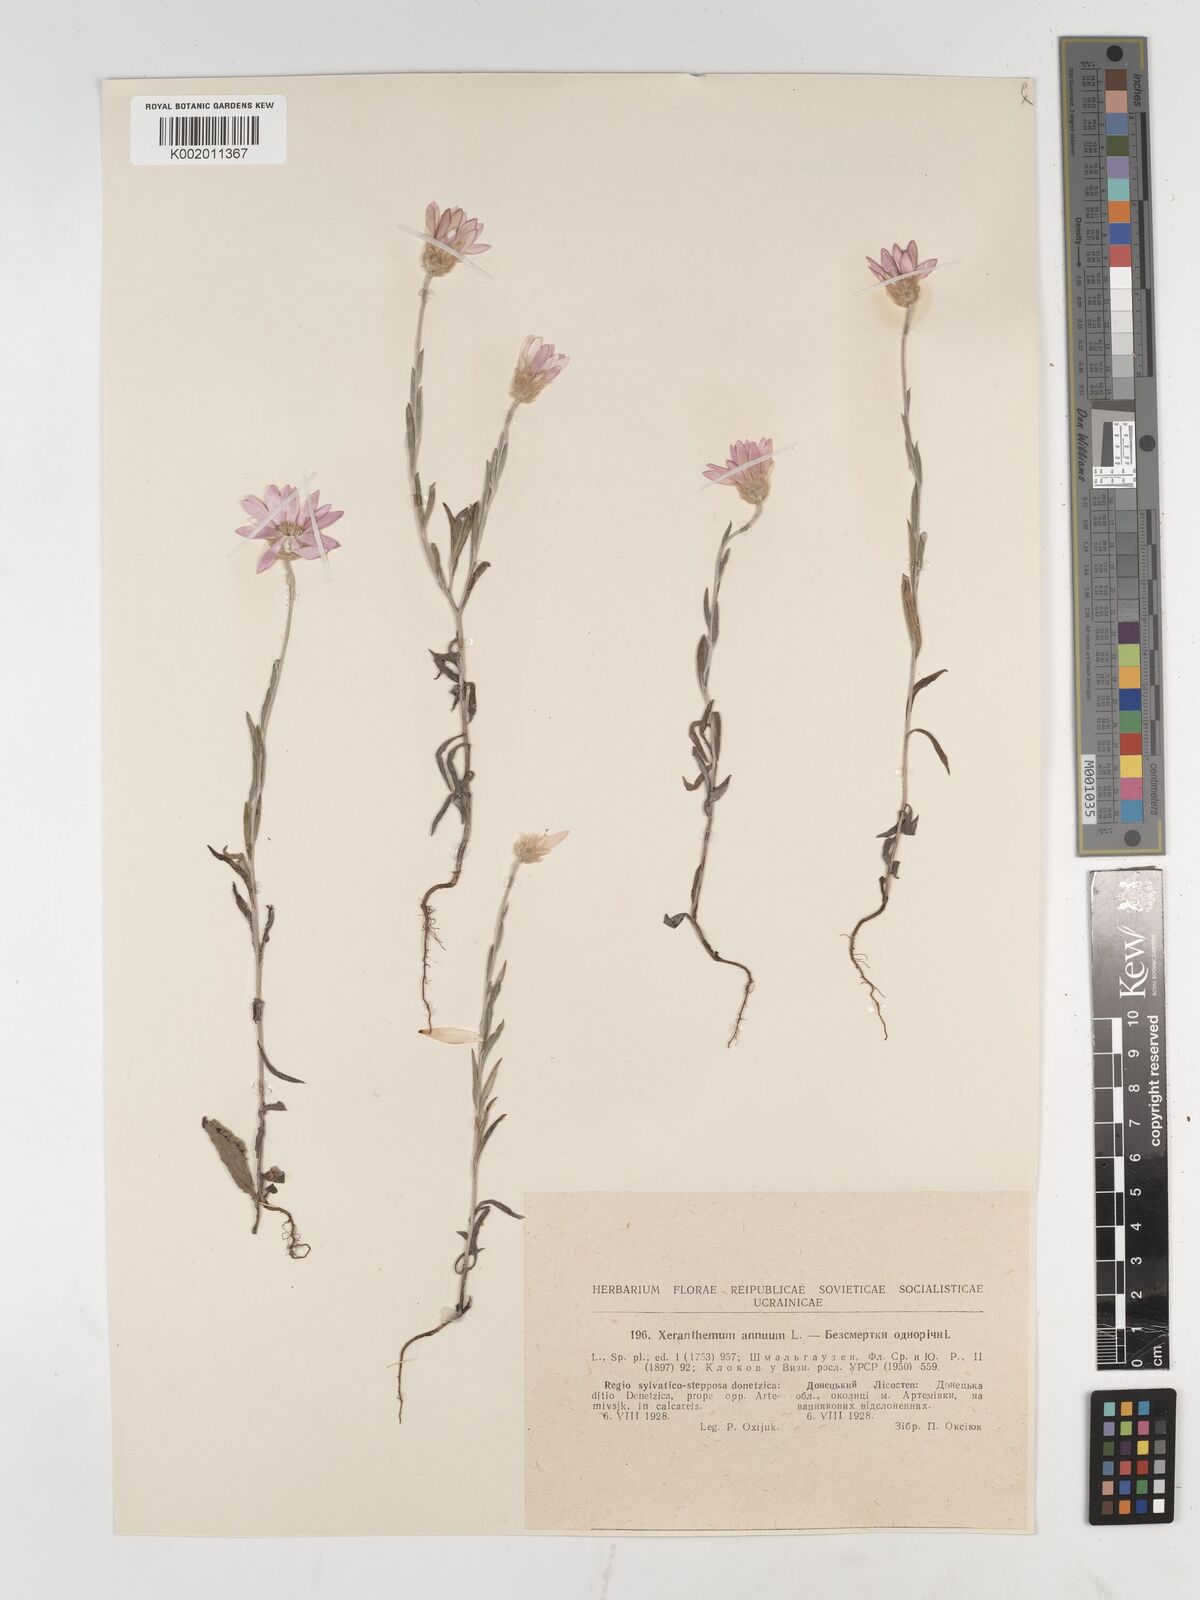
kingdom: Plantae
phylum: Tracheophyta
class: Magnoliopsida
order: Asterales
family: Asteraceae
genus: Xeranthemum
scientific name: Xeranthemum annuum
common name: Immortelle
